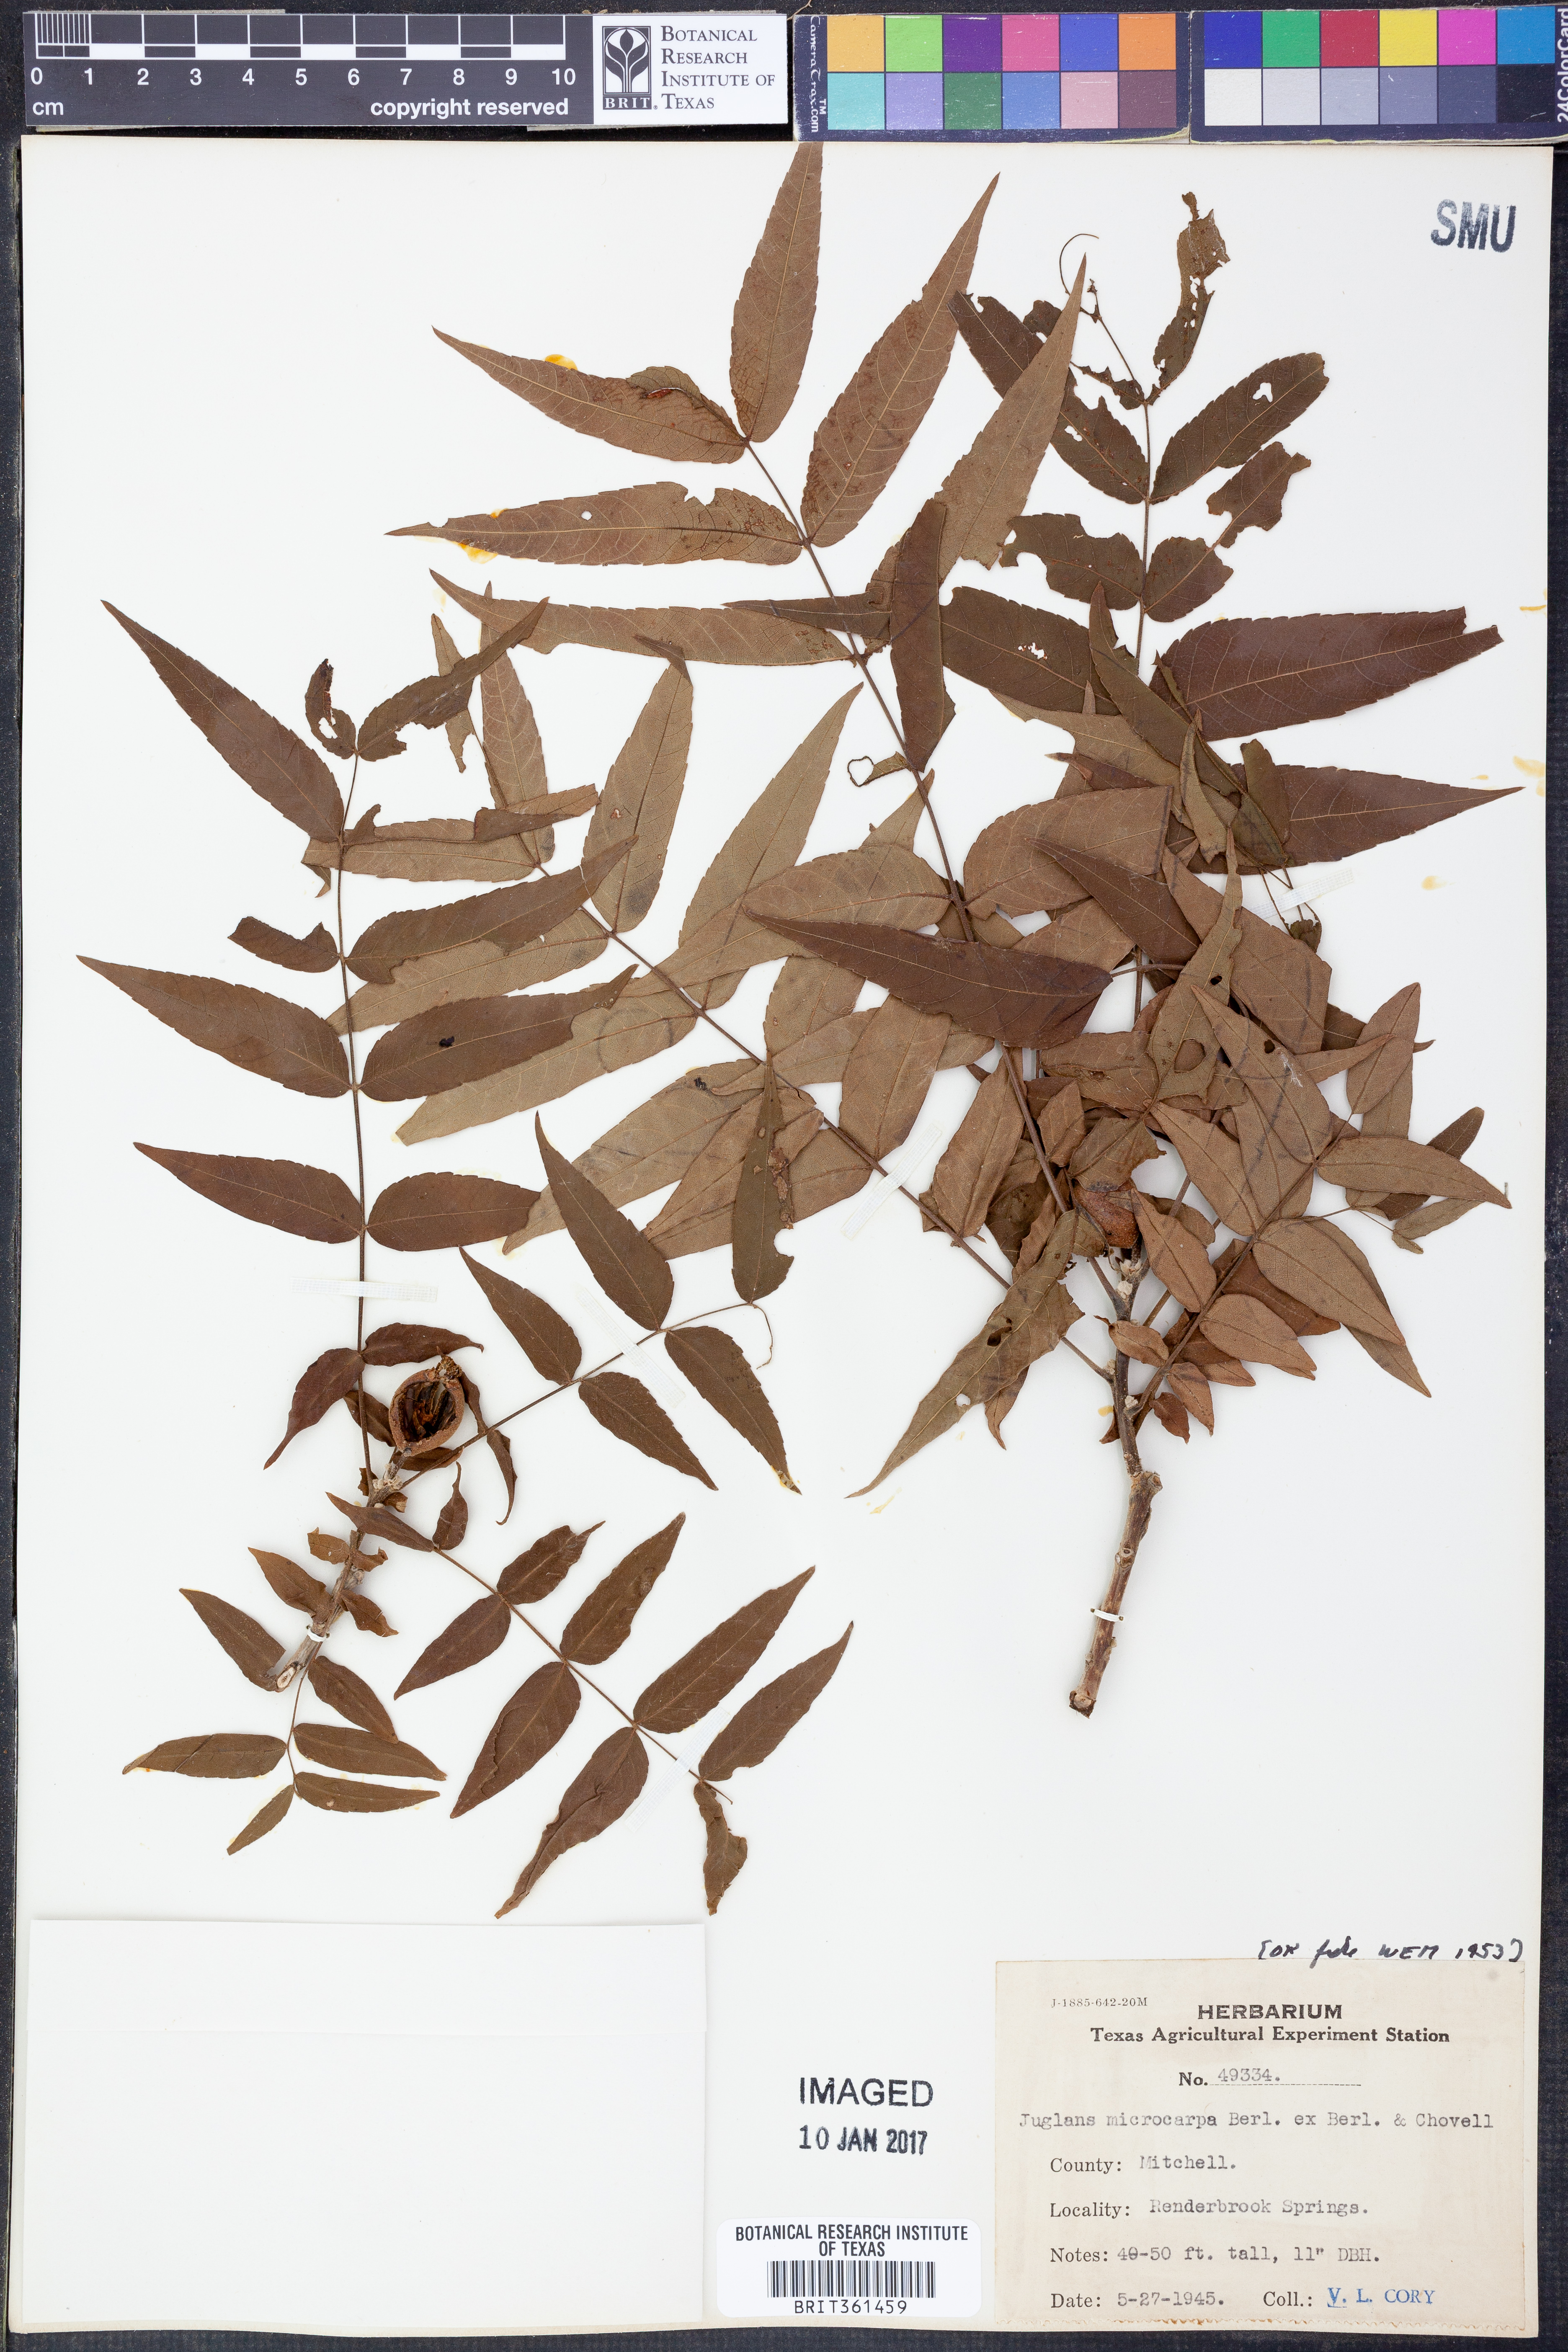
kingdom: Plantae
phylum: Tracheophyta
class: Magnoliopsida
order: Fagales
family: Juglandaceae
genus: Juglans
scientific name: Juglans microcarpa
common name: Texas walnut
